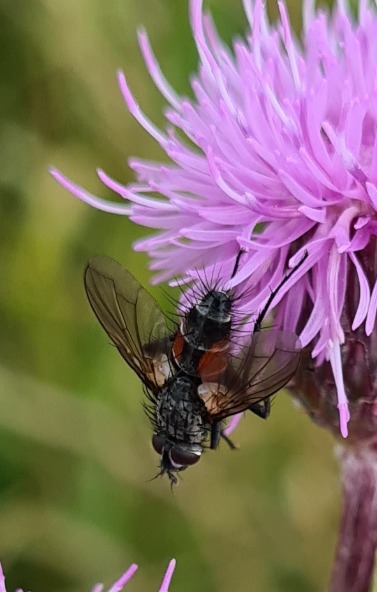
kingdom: Animalia
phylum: Arthropoda
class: Insecta
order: Diptera
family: Tachinidae
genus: Eriothrix
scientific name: Eriothrix rufomaculatus
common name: Rød snylteflue
